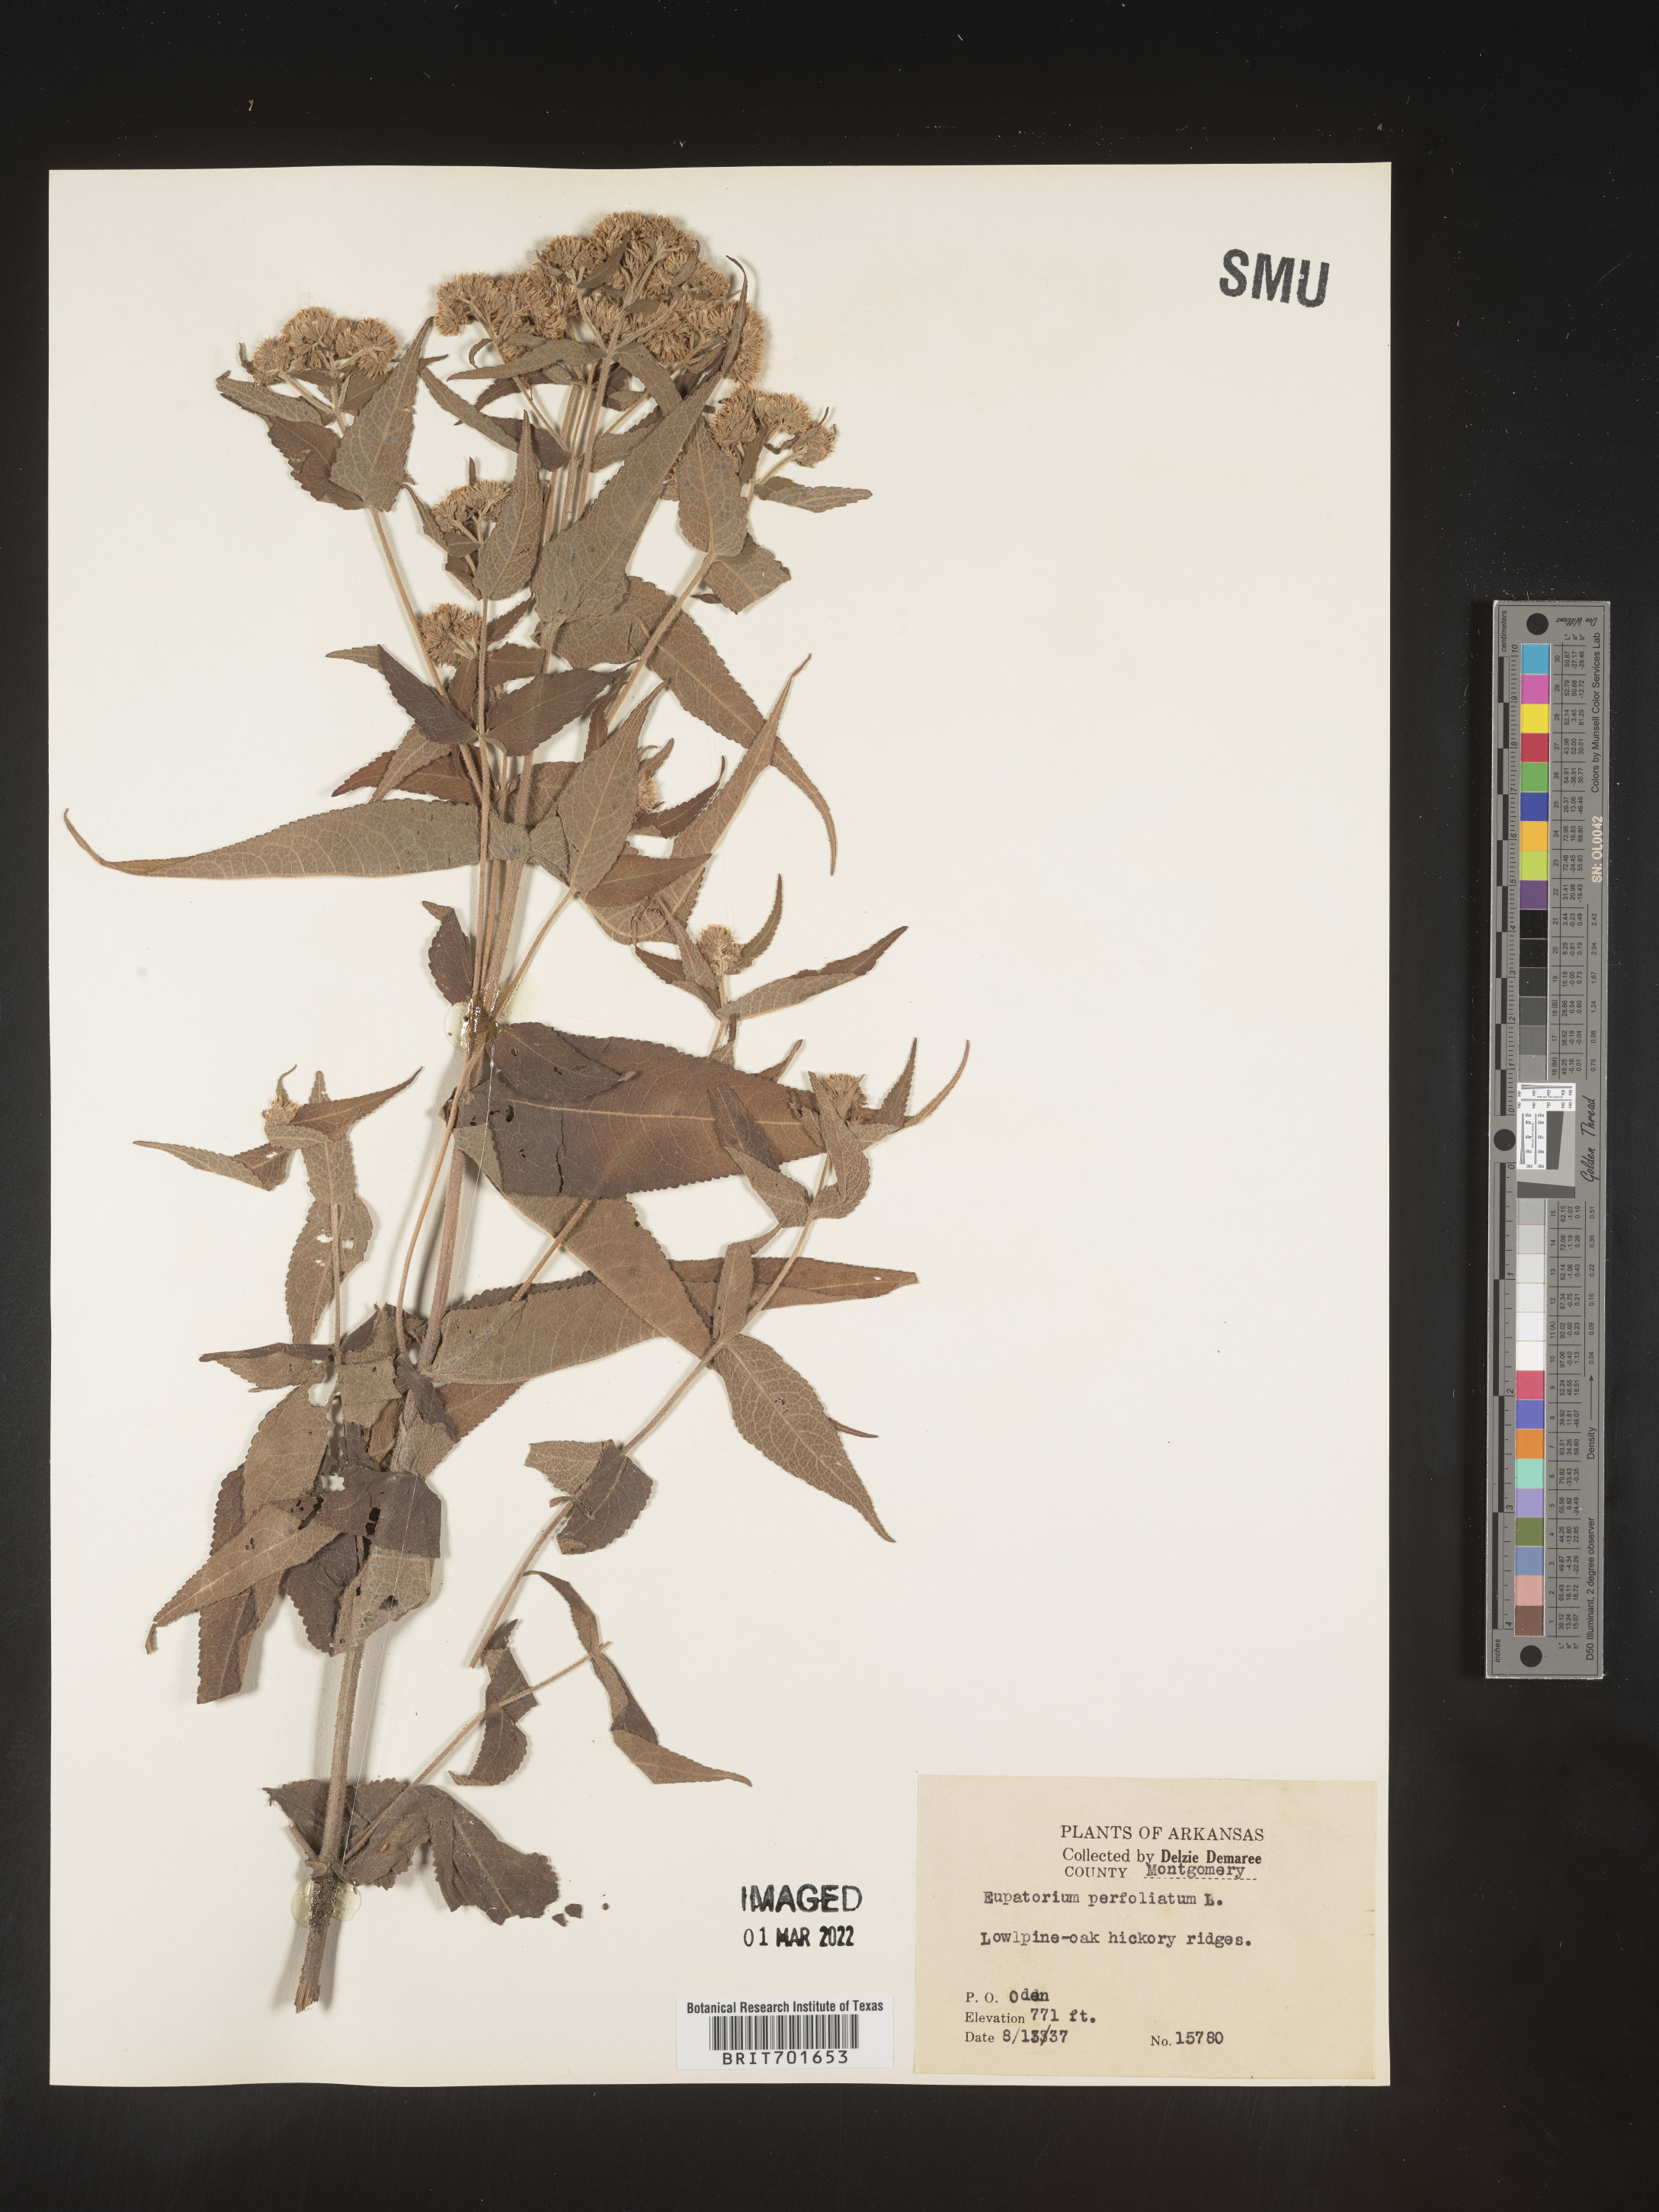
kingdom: Plantae
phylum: Tracheophyta
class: Magnoliopsida
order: Asterales
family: Asteraceae
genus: Eupatorium
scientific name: Eupatorium perfoliatum
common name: Boneset
